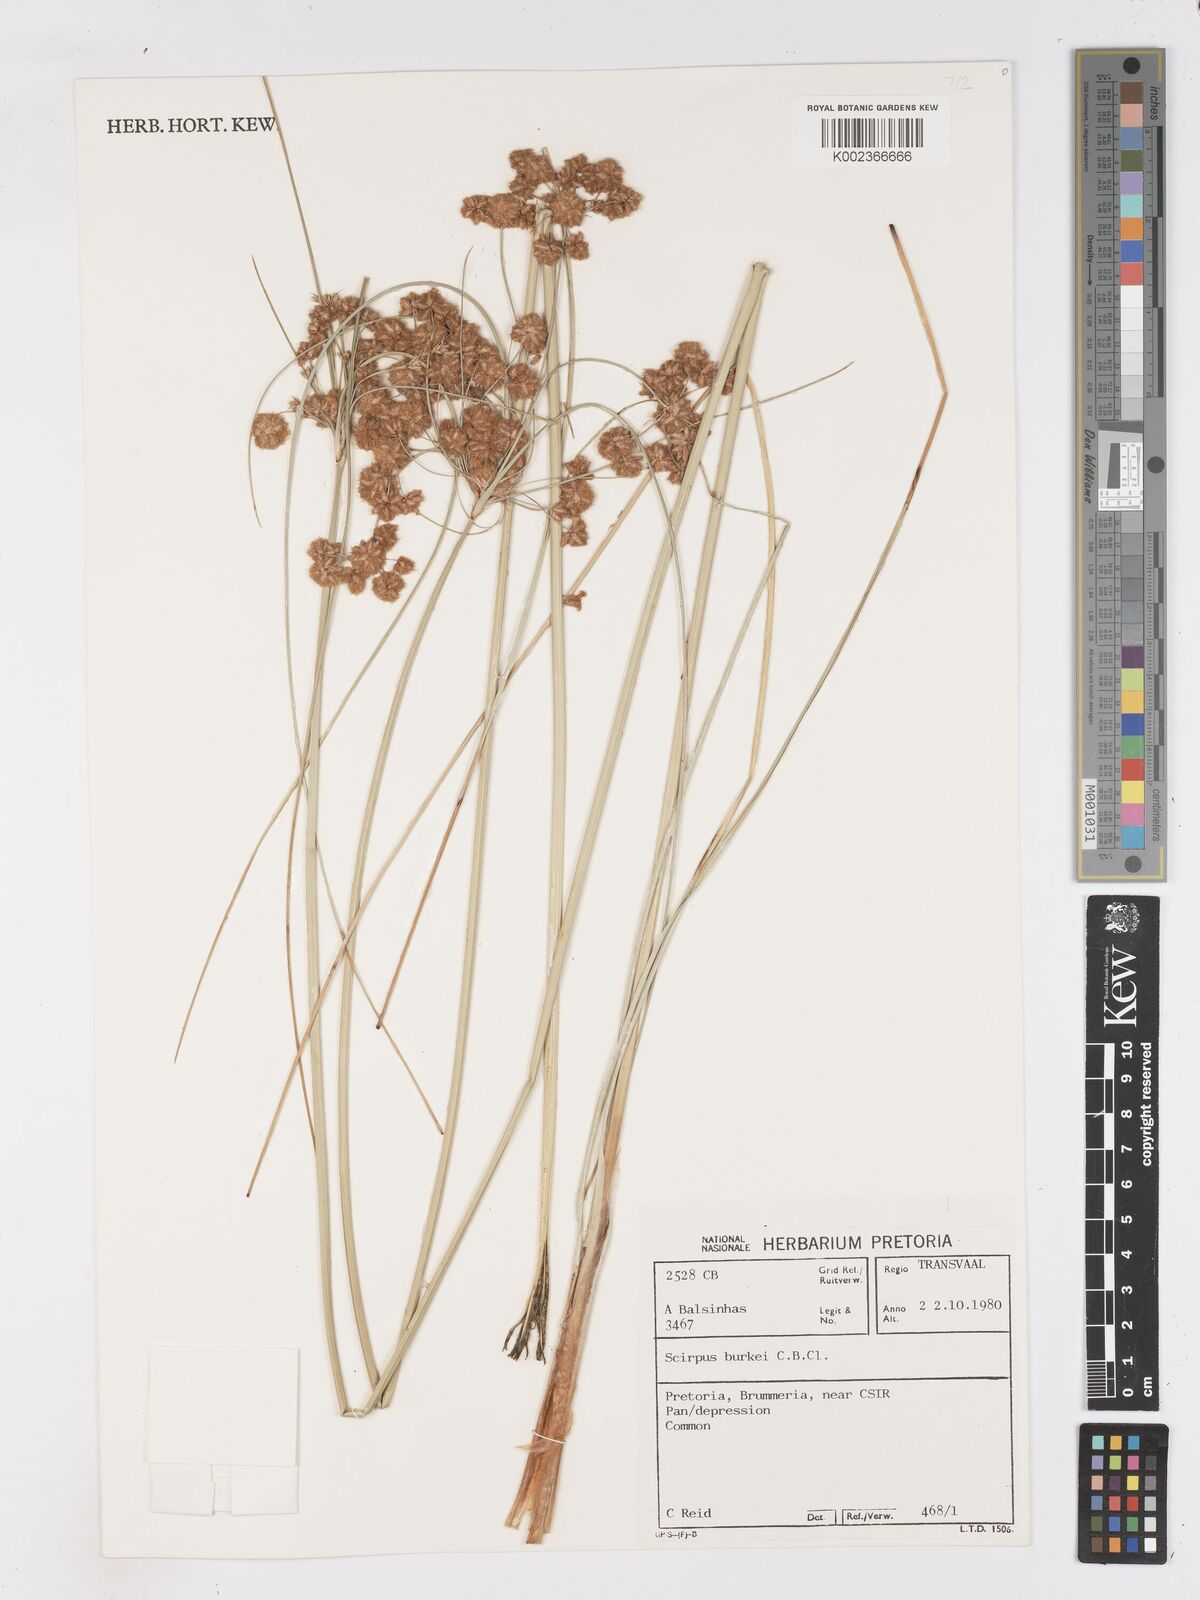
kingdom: Plantae
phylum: Tracheophyta
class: Liliopsida
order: Poales
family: Cyperaceae
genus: Scirpoides
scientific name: Scirpoides burkei
